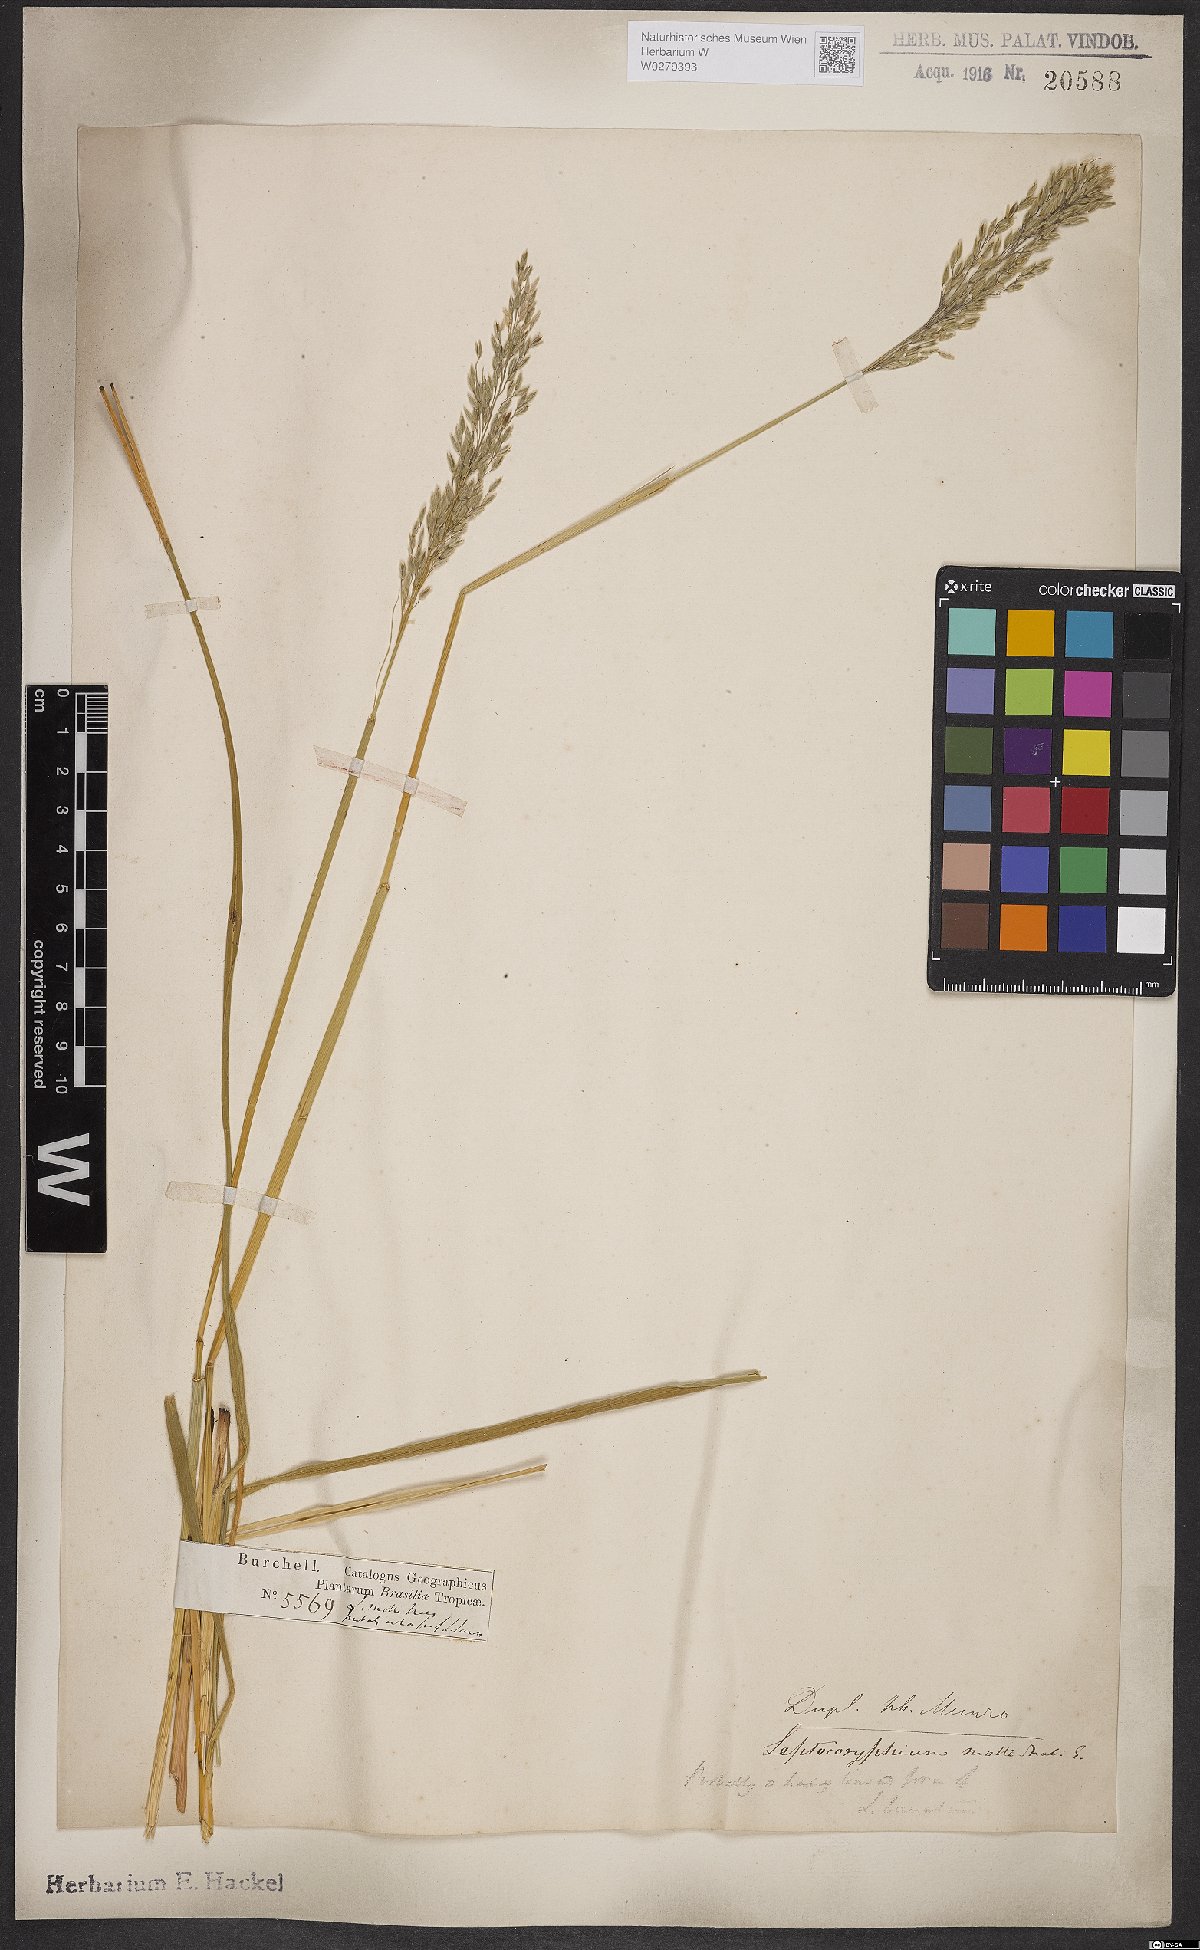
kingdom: Plantae
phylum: Tracheophyta
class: Liliopsida
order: Poales
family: Poaceae
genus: Anthaenantia
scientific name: Anthaenantia lanata
